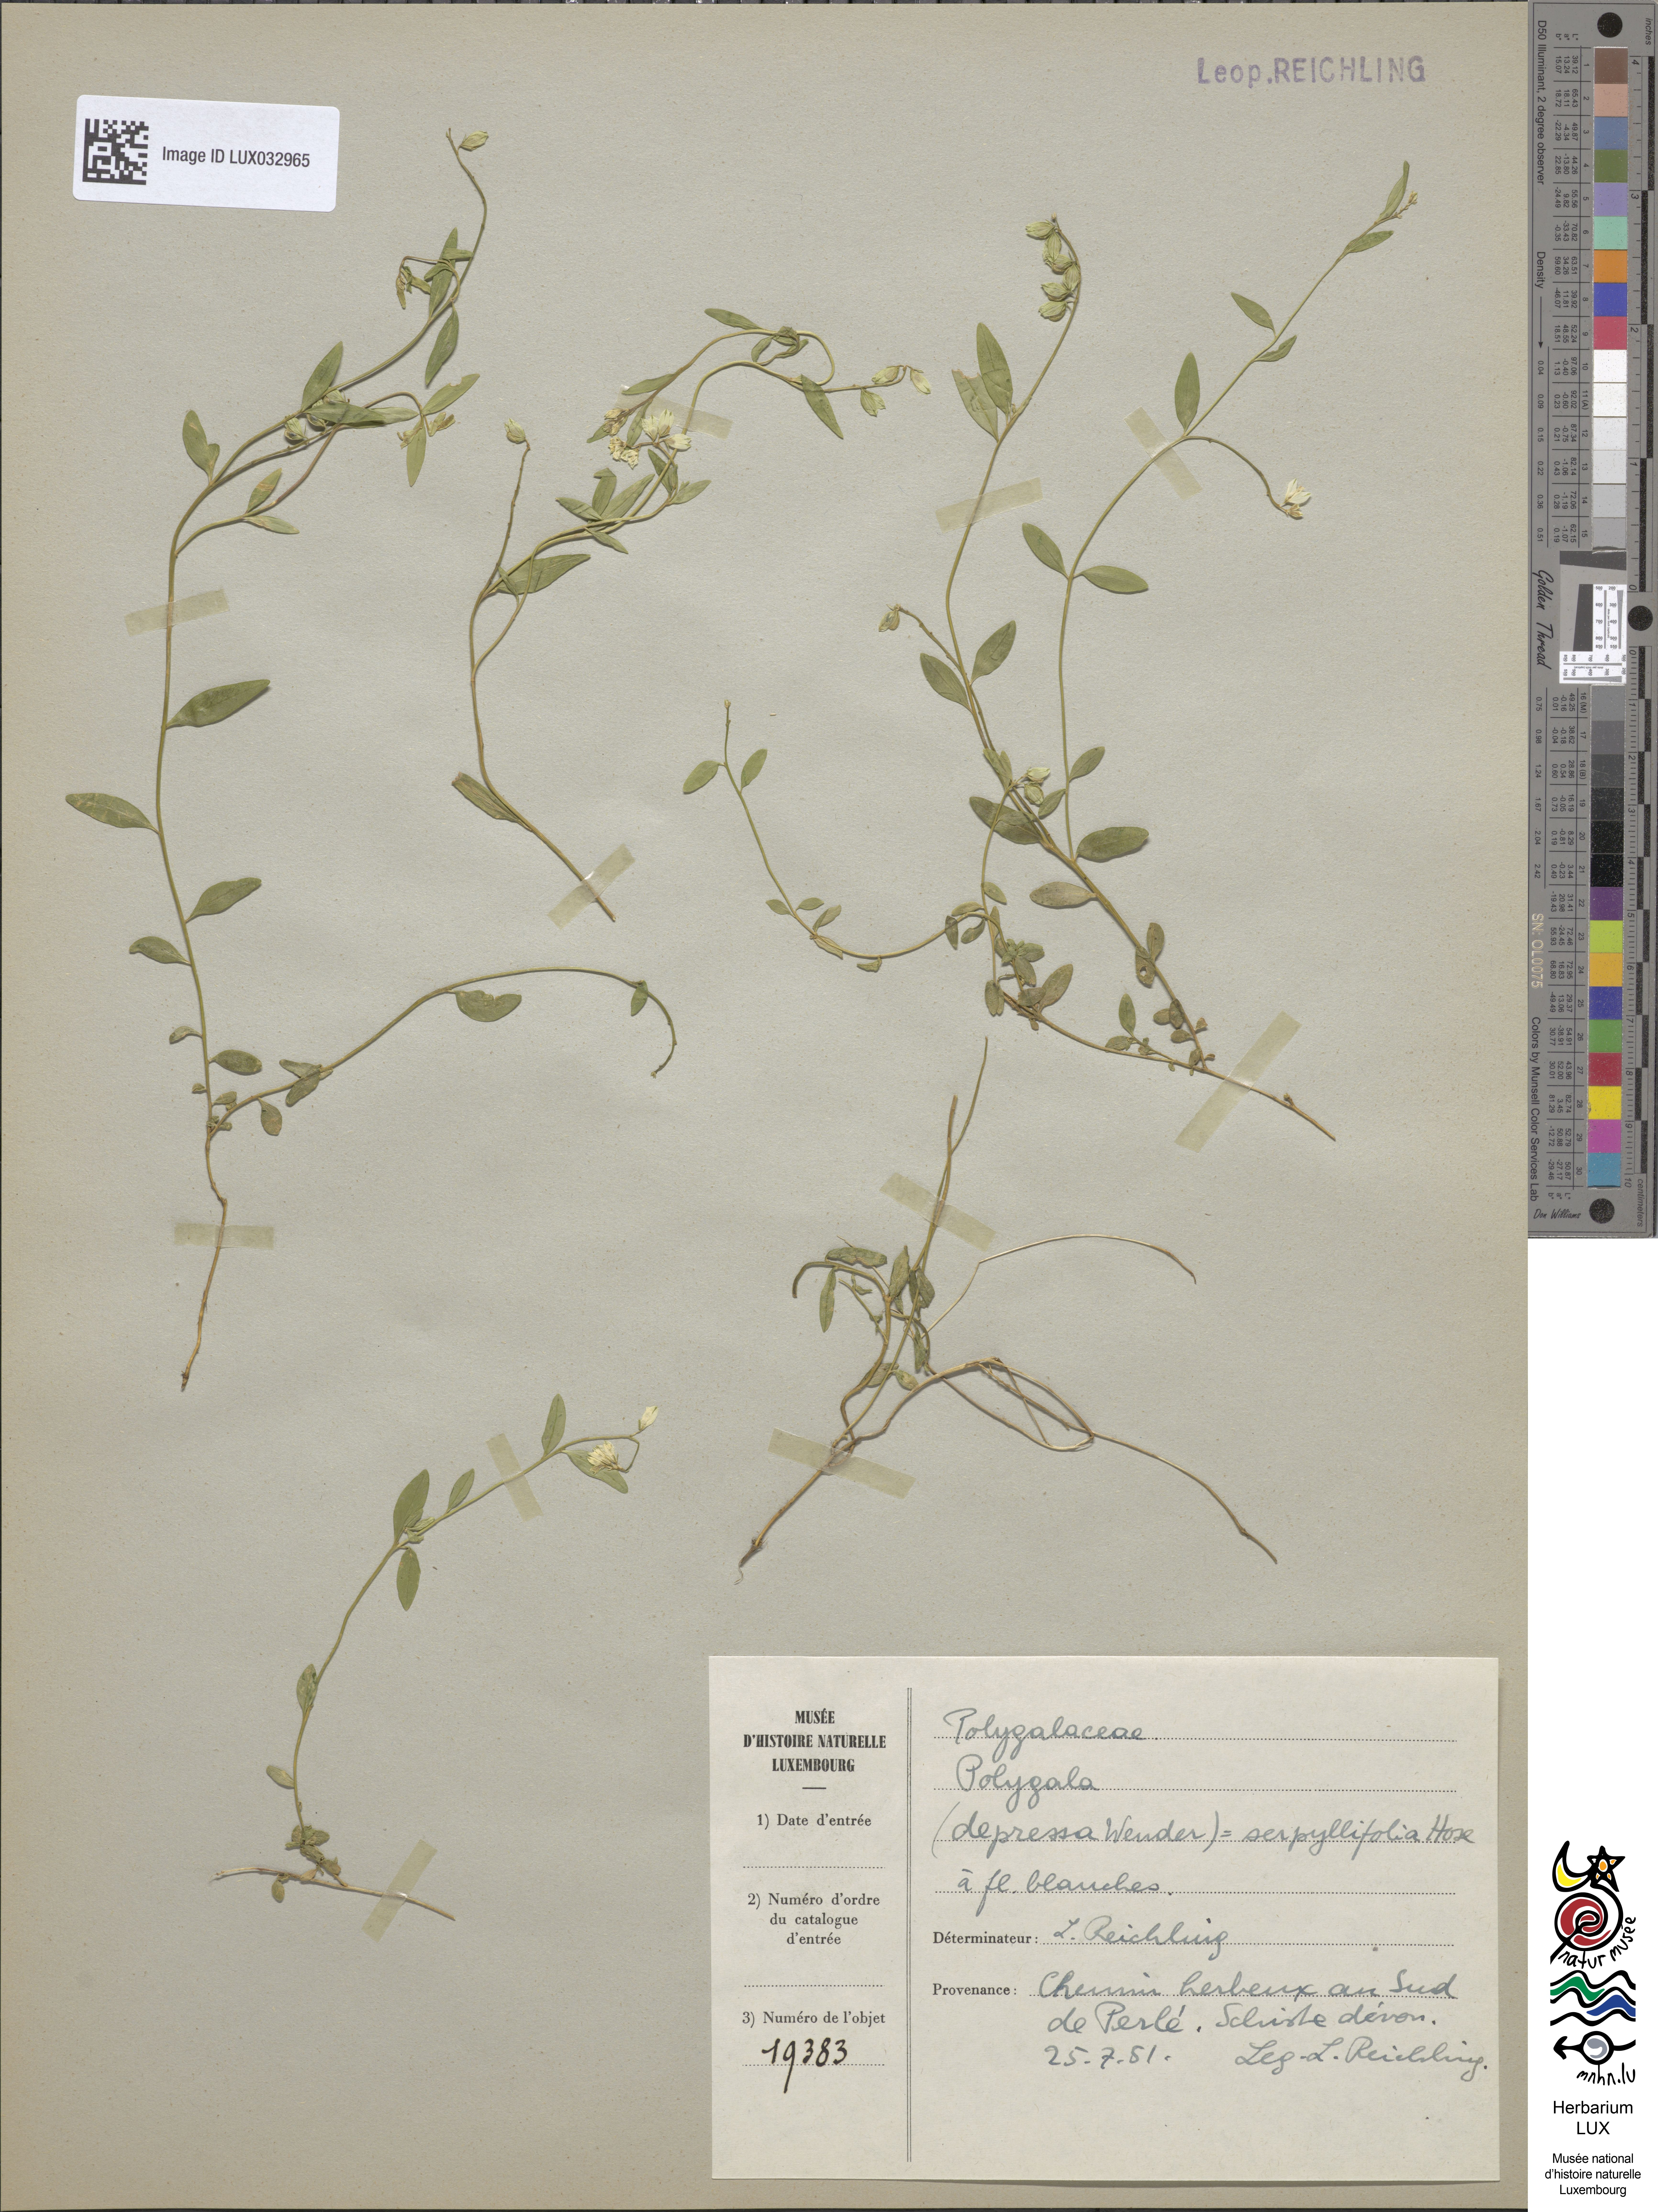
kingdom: Plantae
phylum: Tracheophyta
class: Magnoliopsida
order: Fabales
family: Polygalaceae
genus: Polygala
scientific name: Polygala serpyllifolia
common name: Heath milkwort
